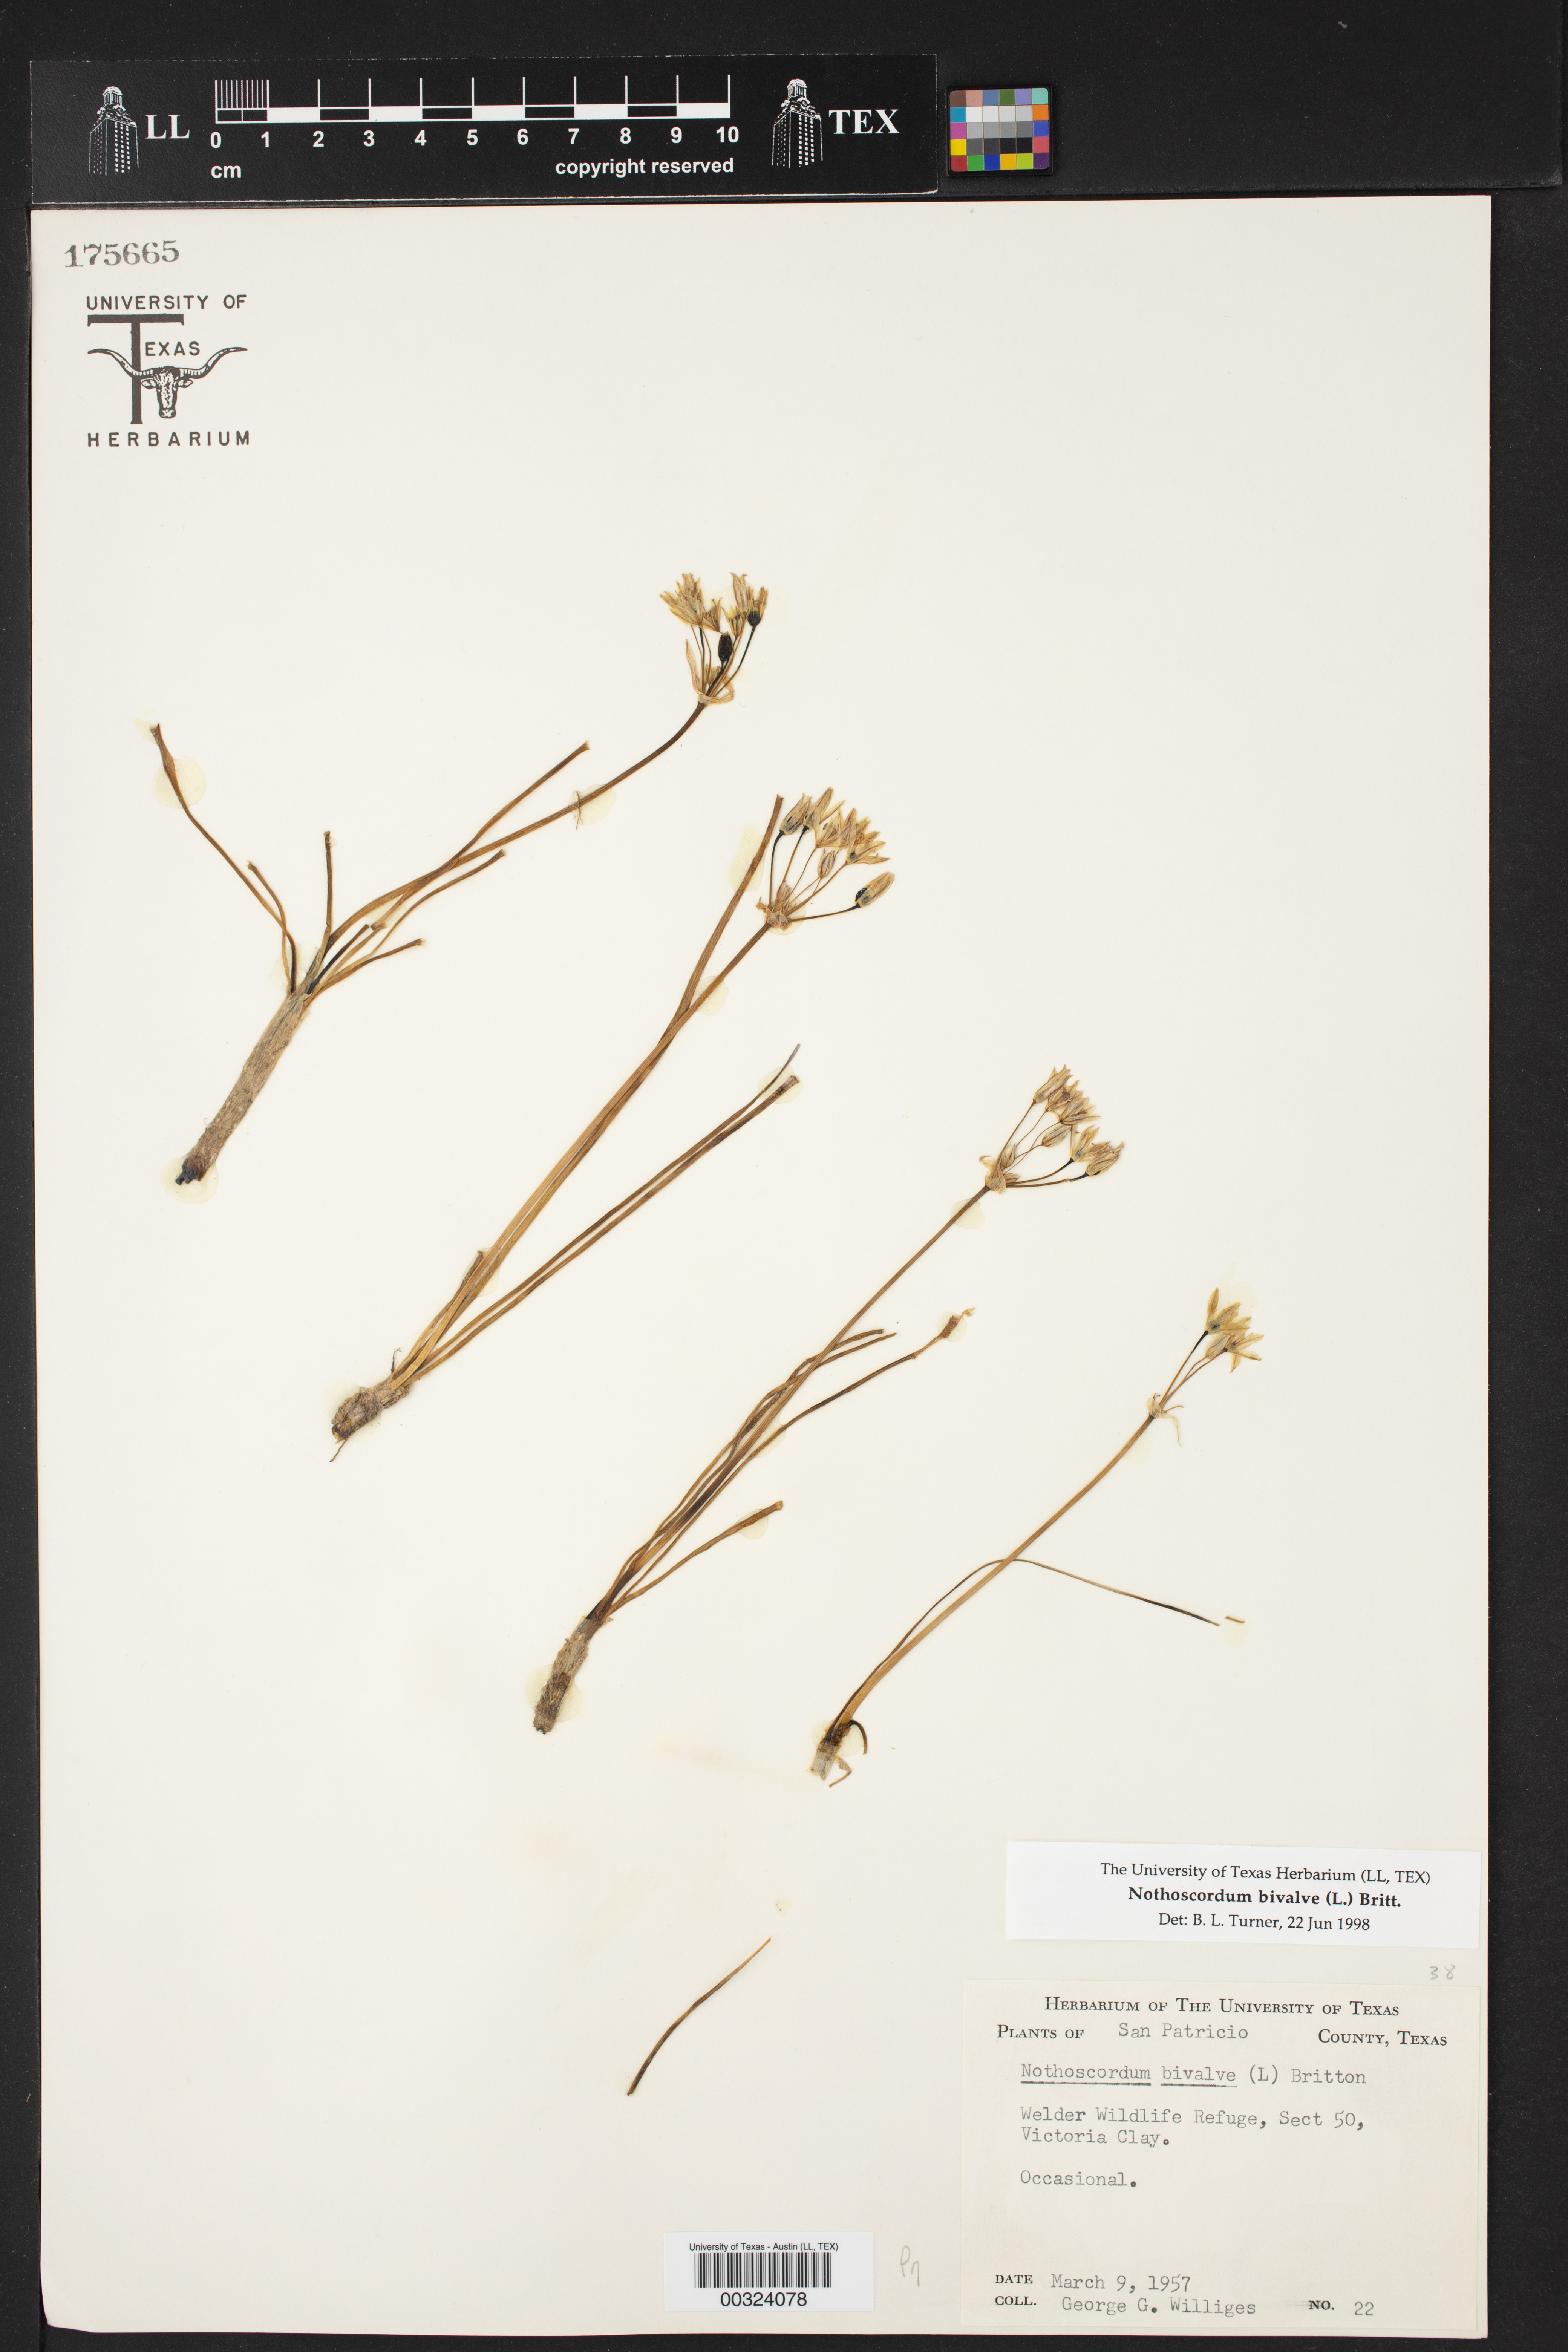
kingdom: Plantae
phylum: Tracheophyta
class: Liliopsida
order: Asparagales
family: Amaryllidaceae
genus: Nothoscordum
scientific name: Nothoscordum bivalve
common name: Crow-poison
